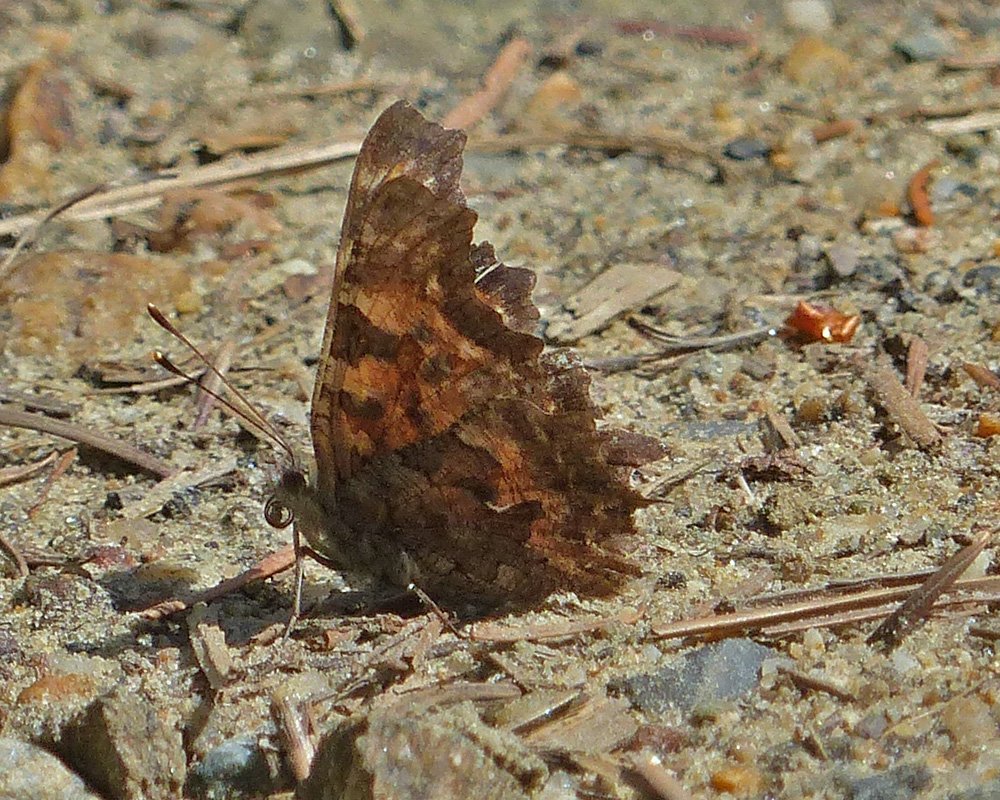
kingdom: Animalia
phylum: Arthropoda
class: Insecta
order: Lepidoptera
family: Nymphalidae
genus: Polygonia
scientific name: Polygonia satyrus
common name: Satyr Comma
